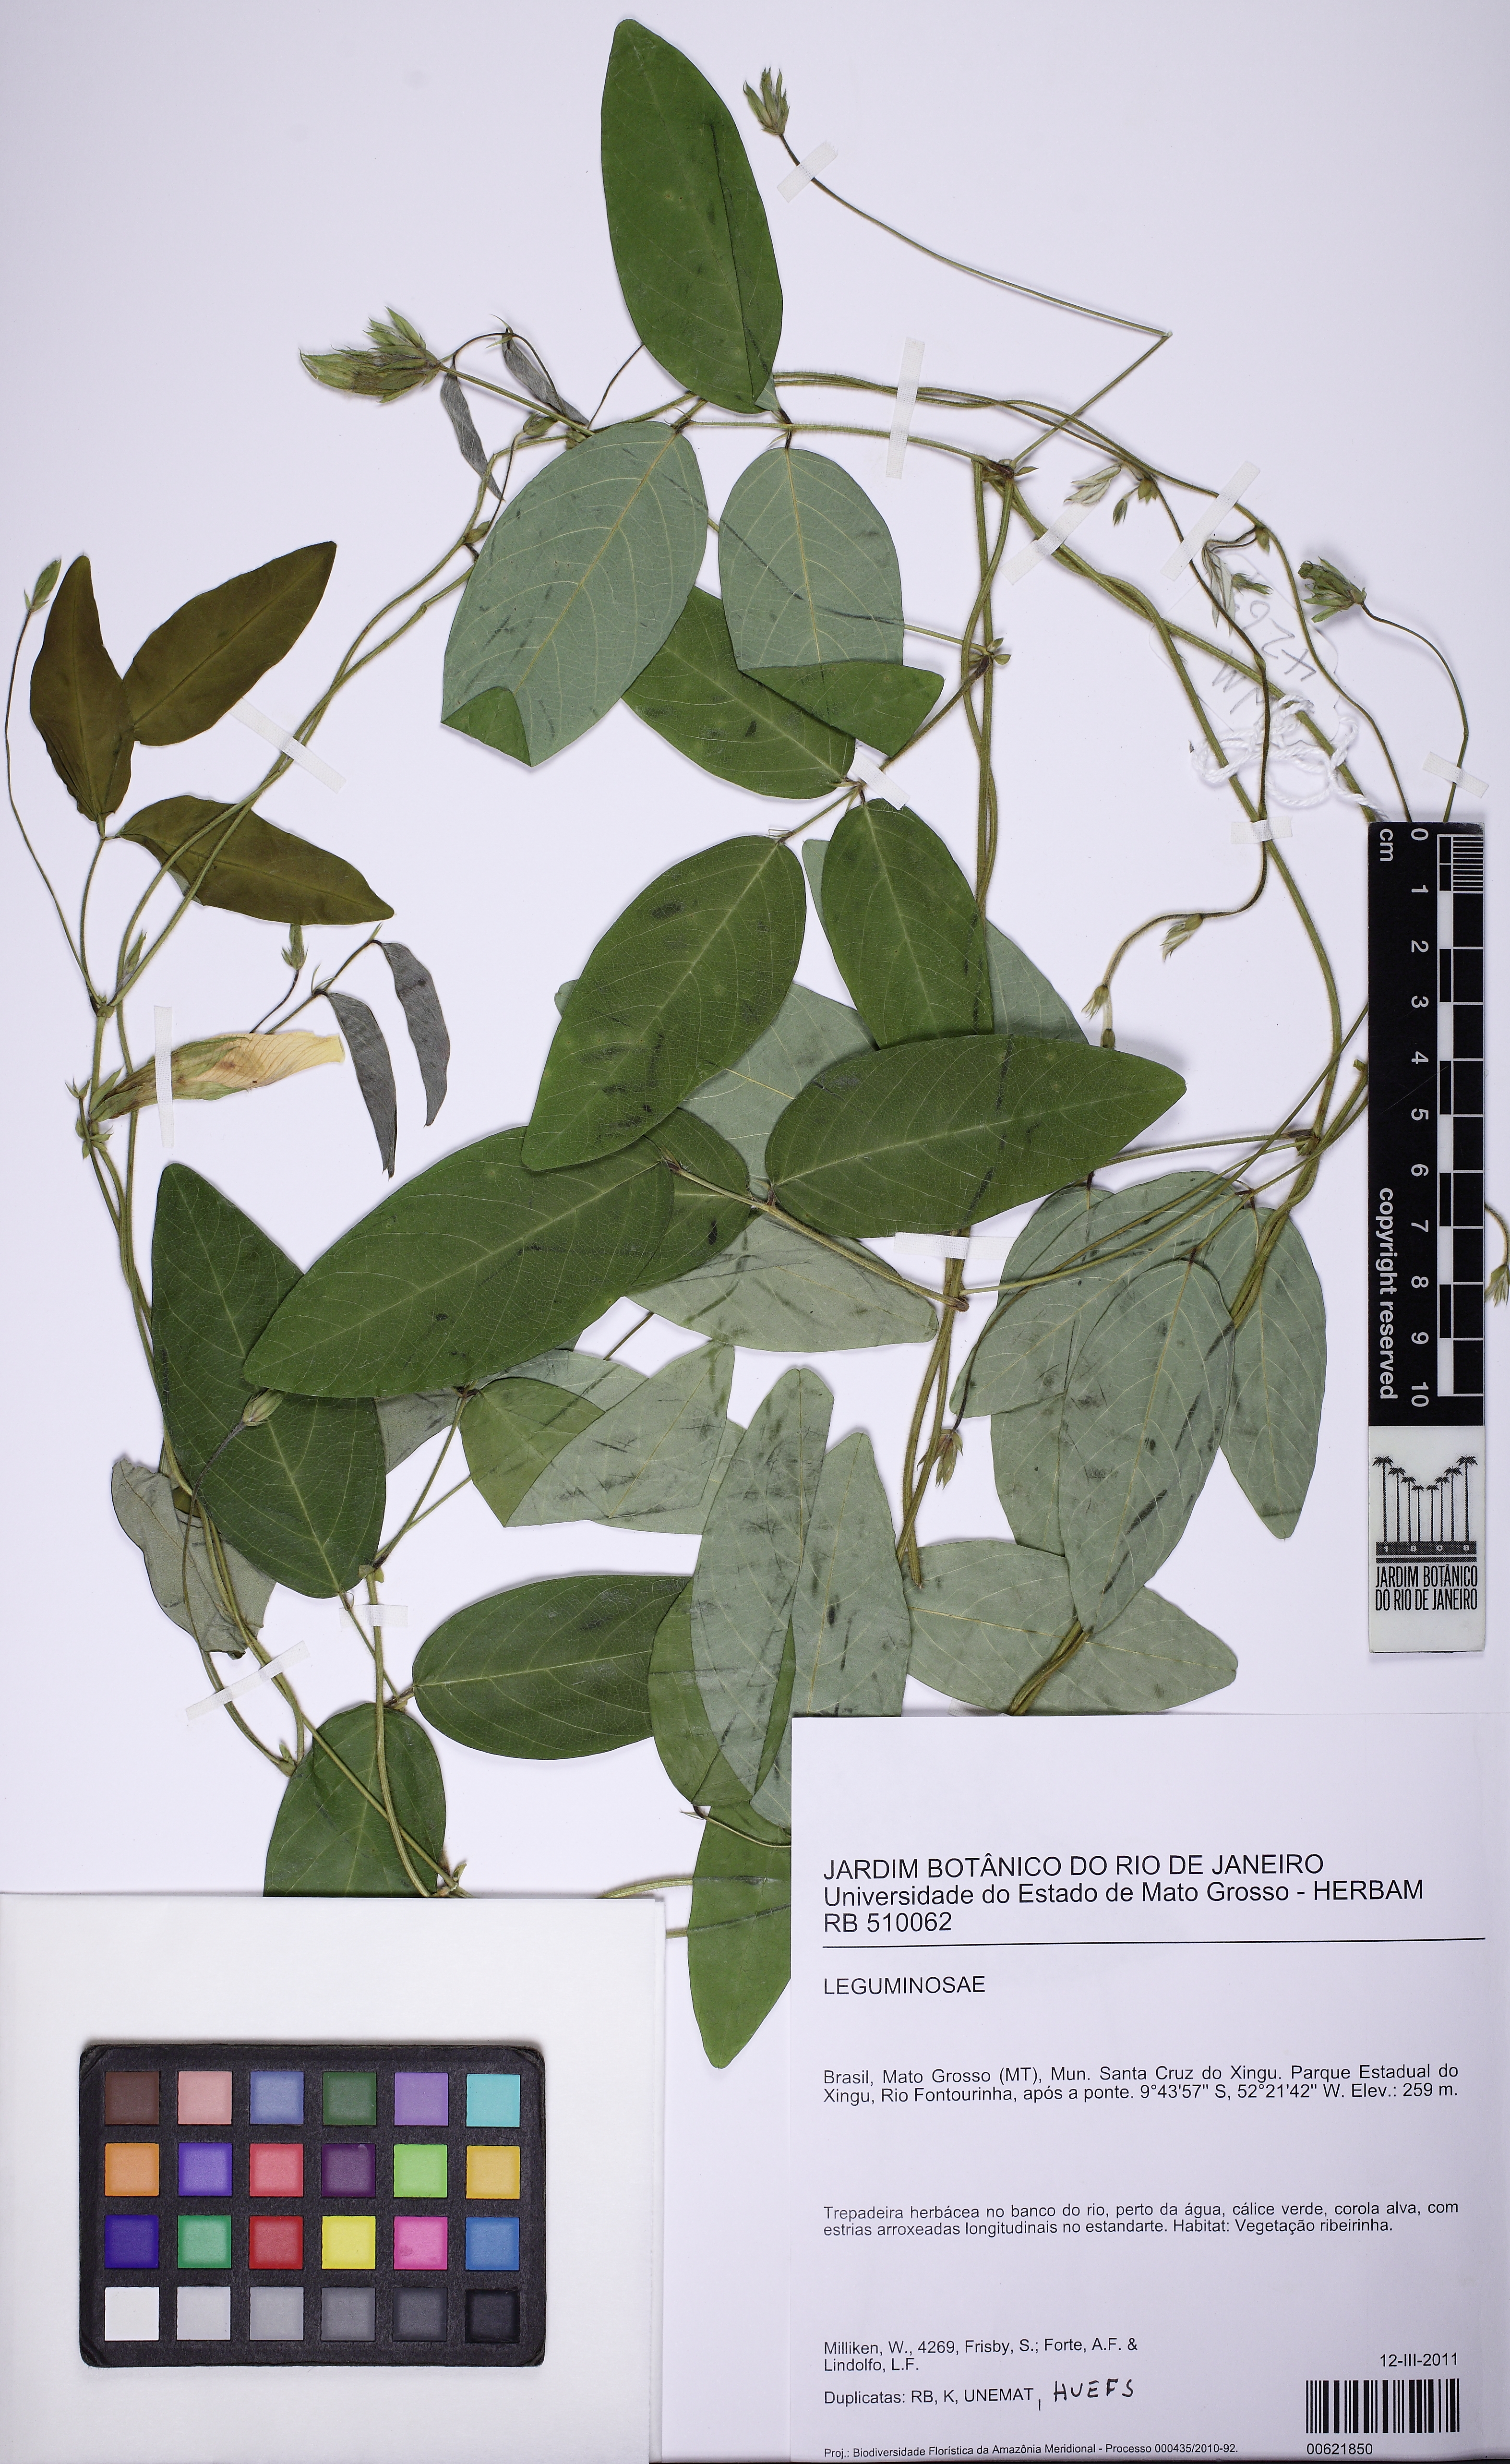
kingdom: Plantae
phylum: Tracheophyta
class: Magnoliopsida
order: Fabales
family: Fabaceae
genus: Clitoria
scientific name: Clitoria falcata
